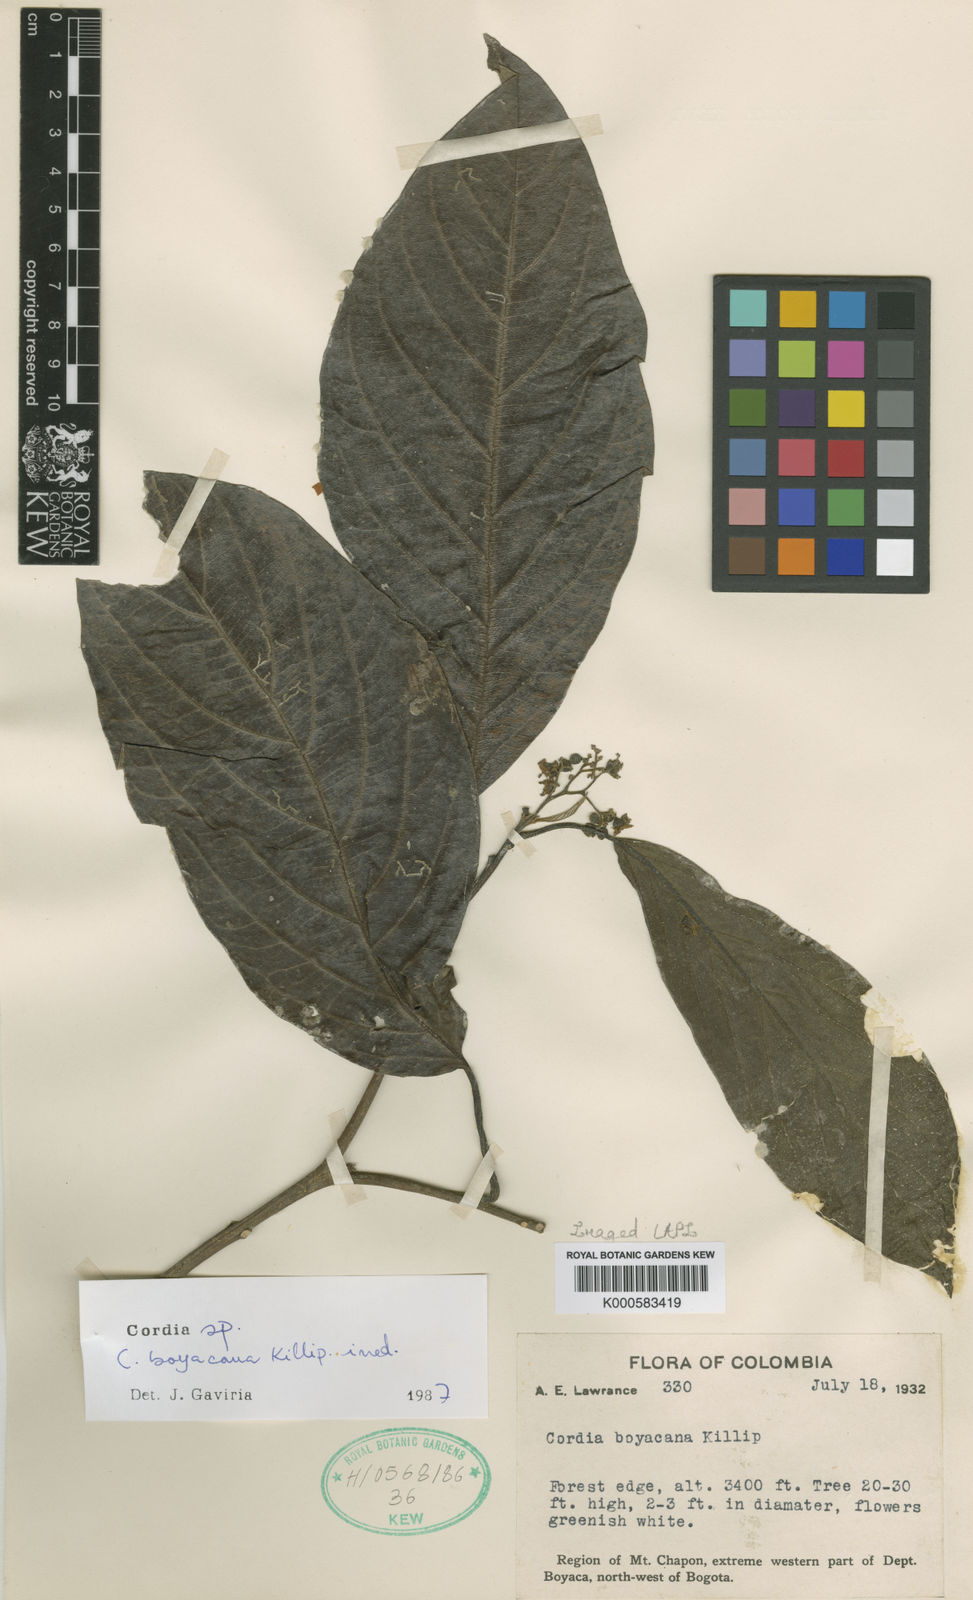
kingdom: Plantae
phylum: Tracheophyta
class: Magnoliopsida
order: Boraginales
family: Cordiaceae
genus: Cordia
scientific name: Cordia
